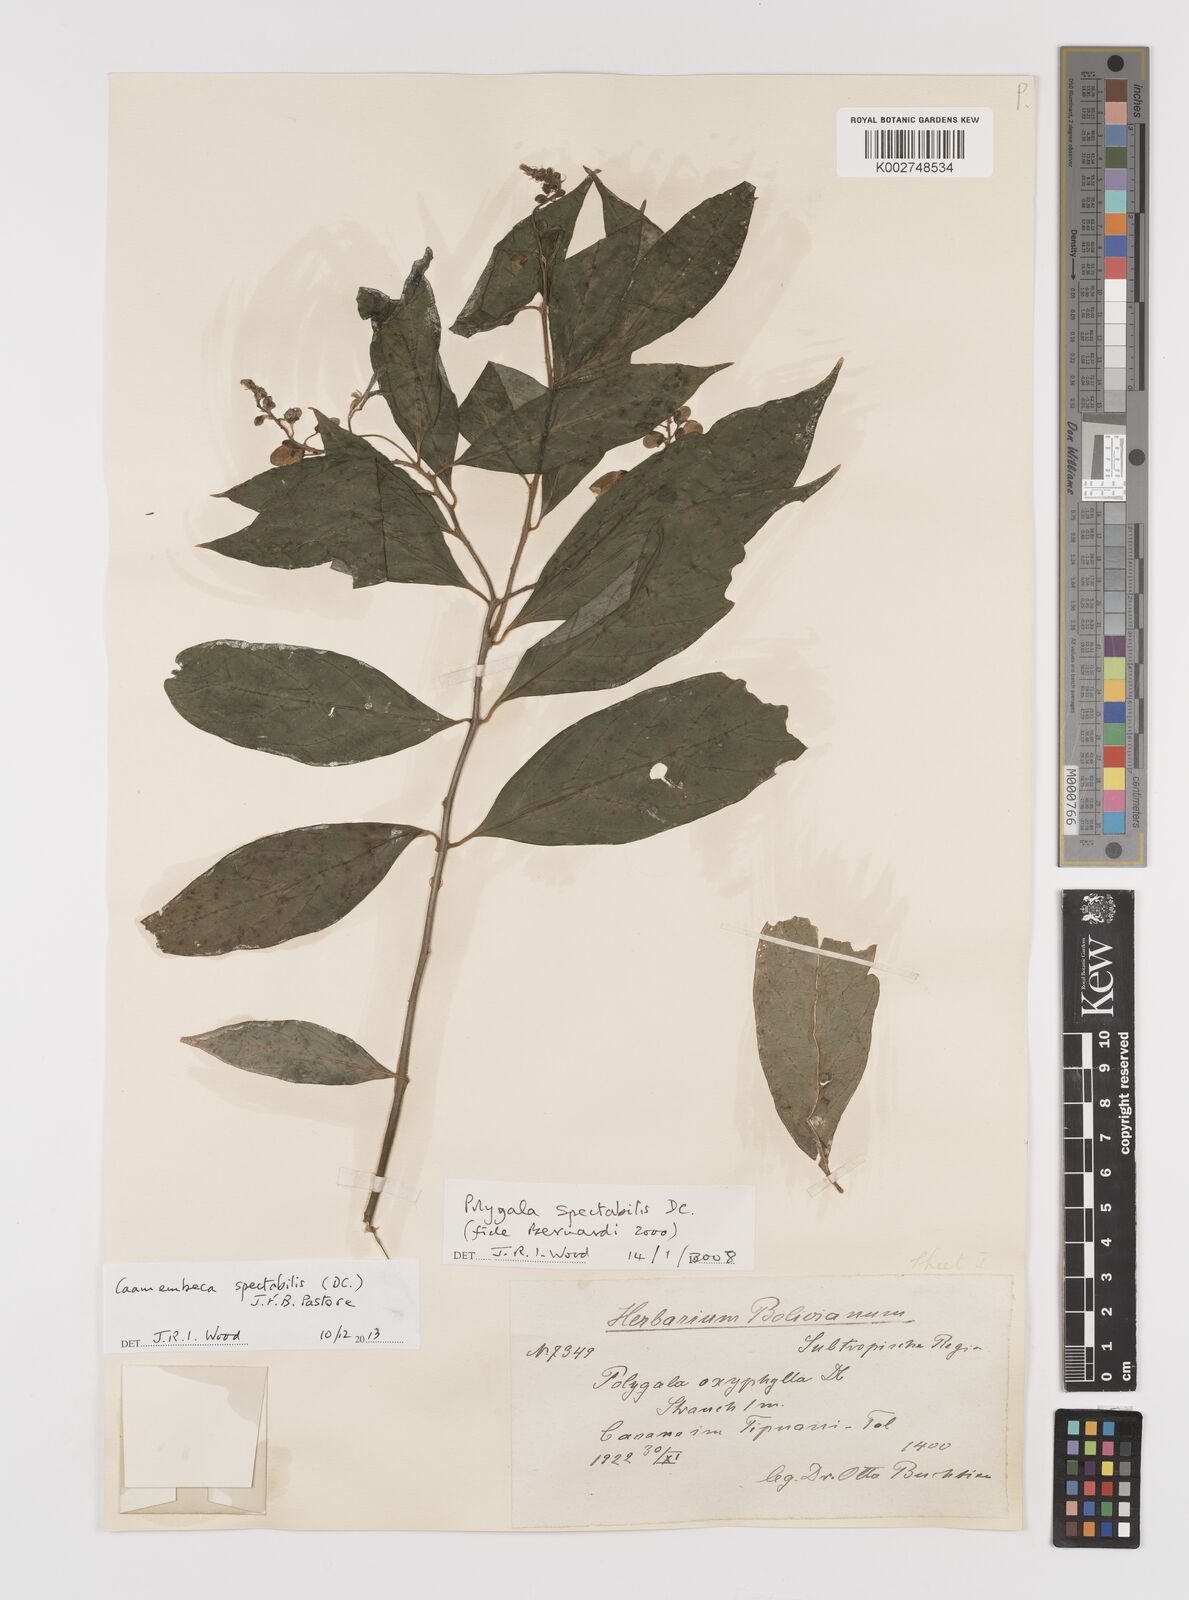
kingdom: Plantae
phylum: Tracheophyta
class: Magnoliopsida
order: Fabales
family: Polygalaceae
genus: Caamembeca
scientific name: Caamembeca spectabilis
